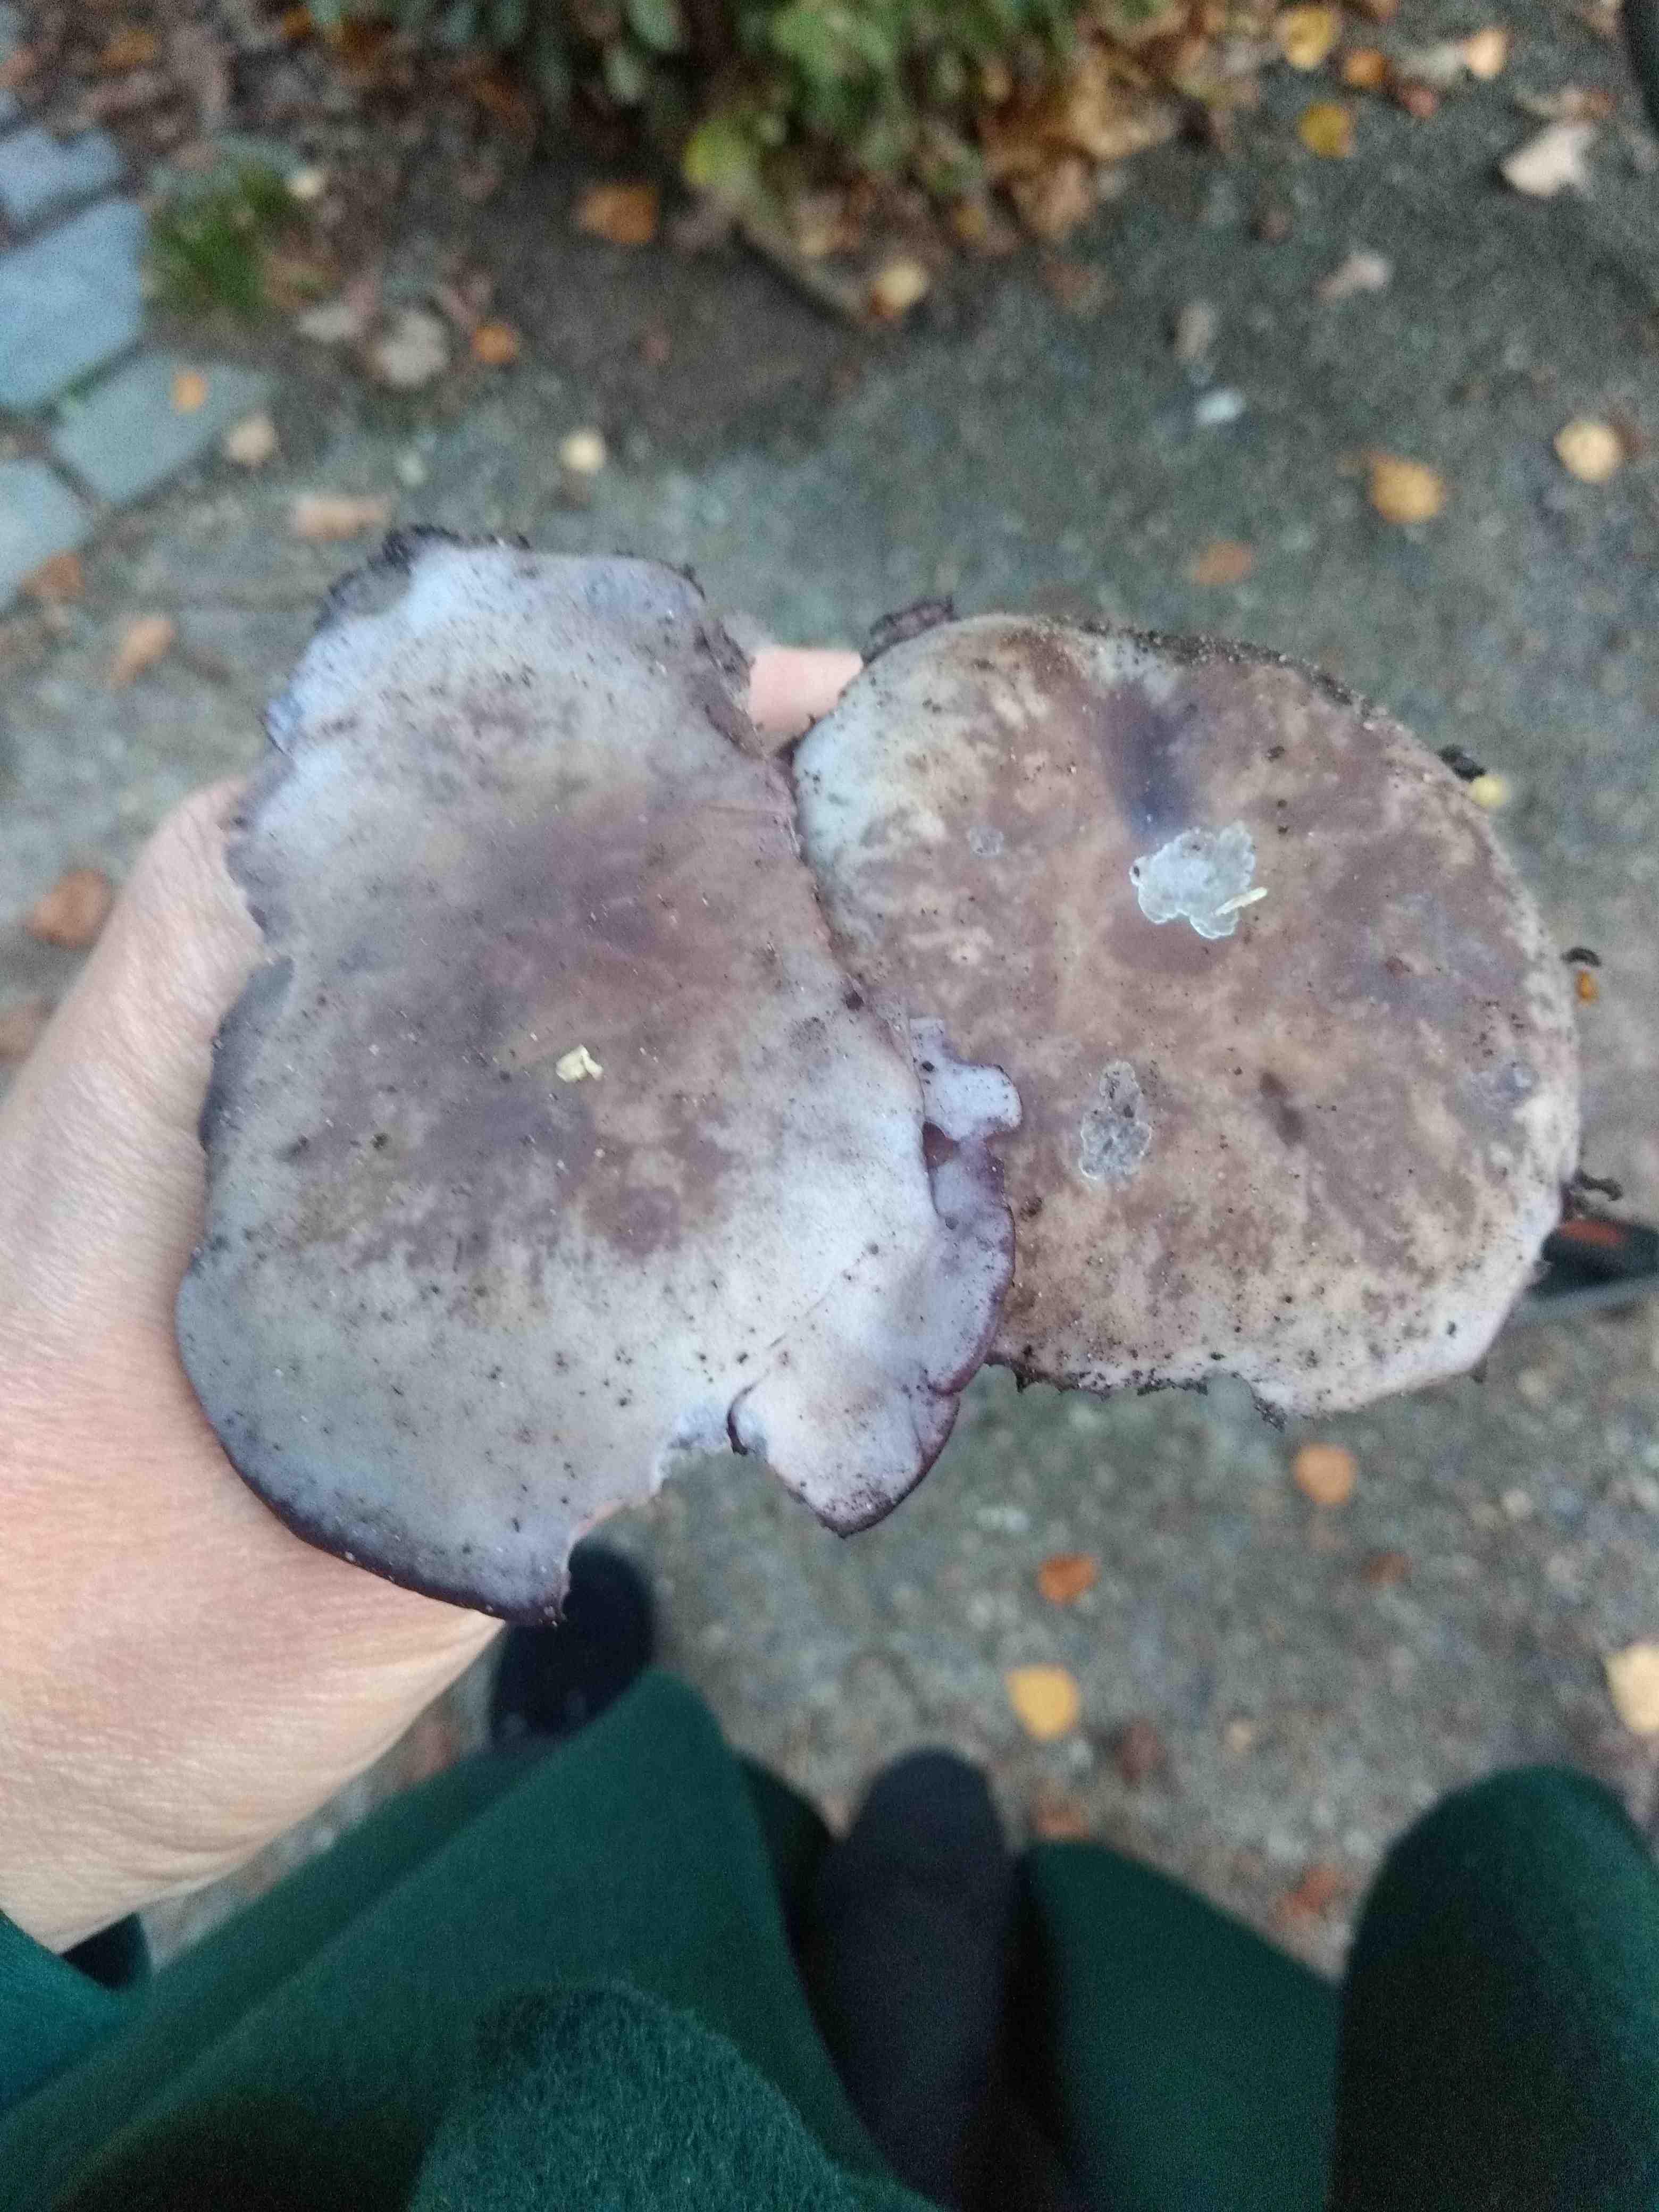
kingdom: Fungi
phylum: Basidiomycota
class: Agaricomycetes
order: Agaricales
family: Tricholomataceae
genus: Lepista
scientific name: Lepista
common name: hekseringshat
